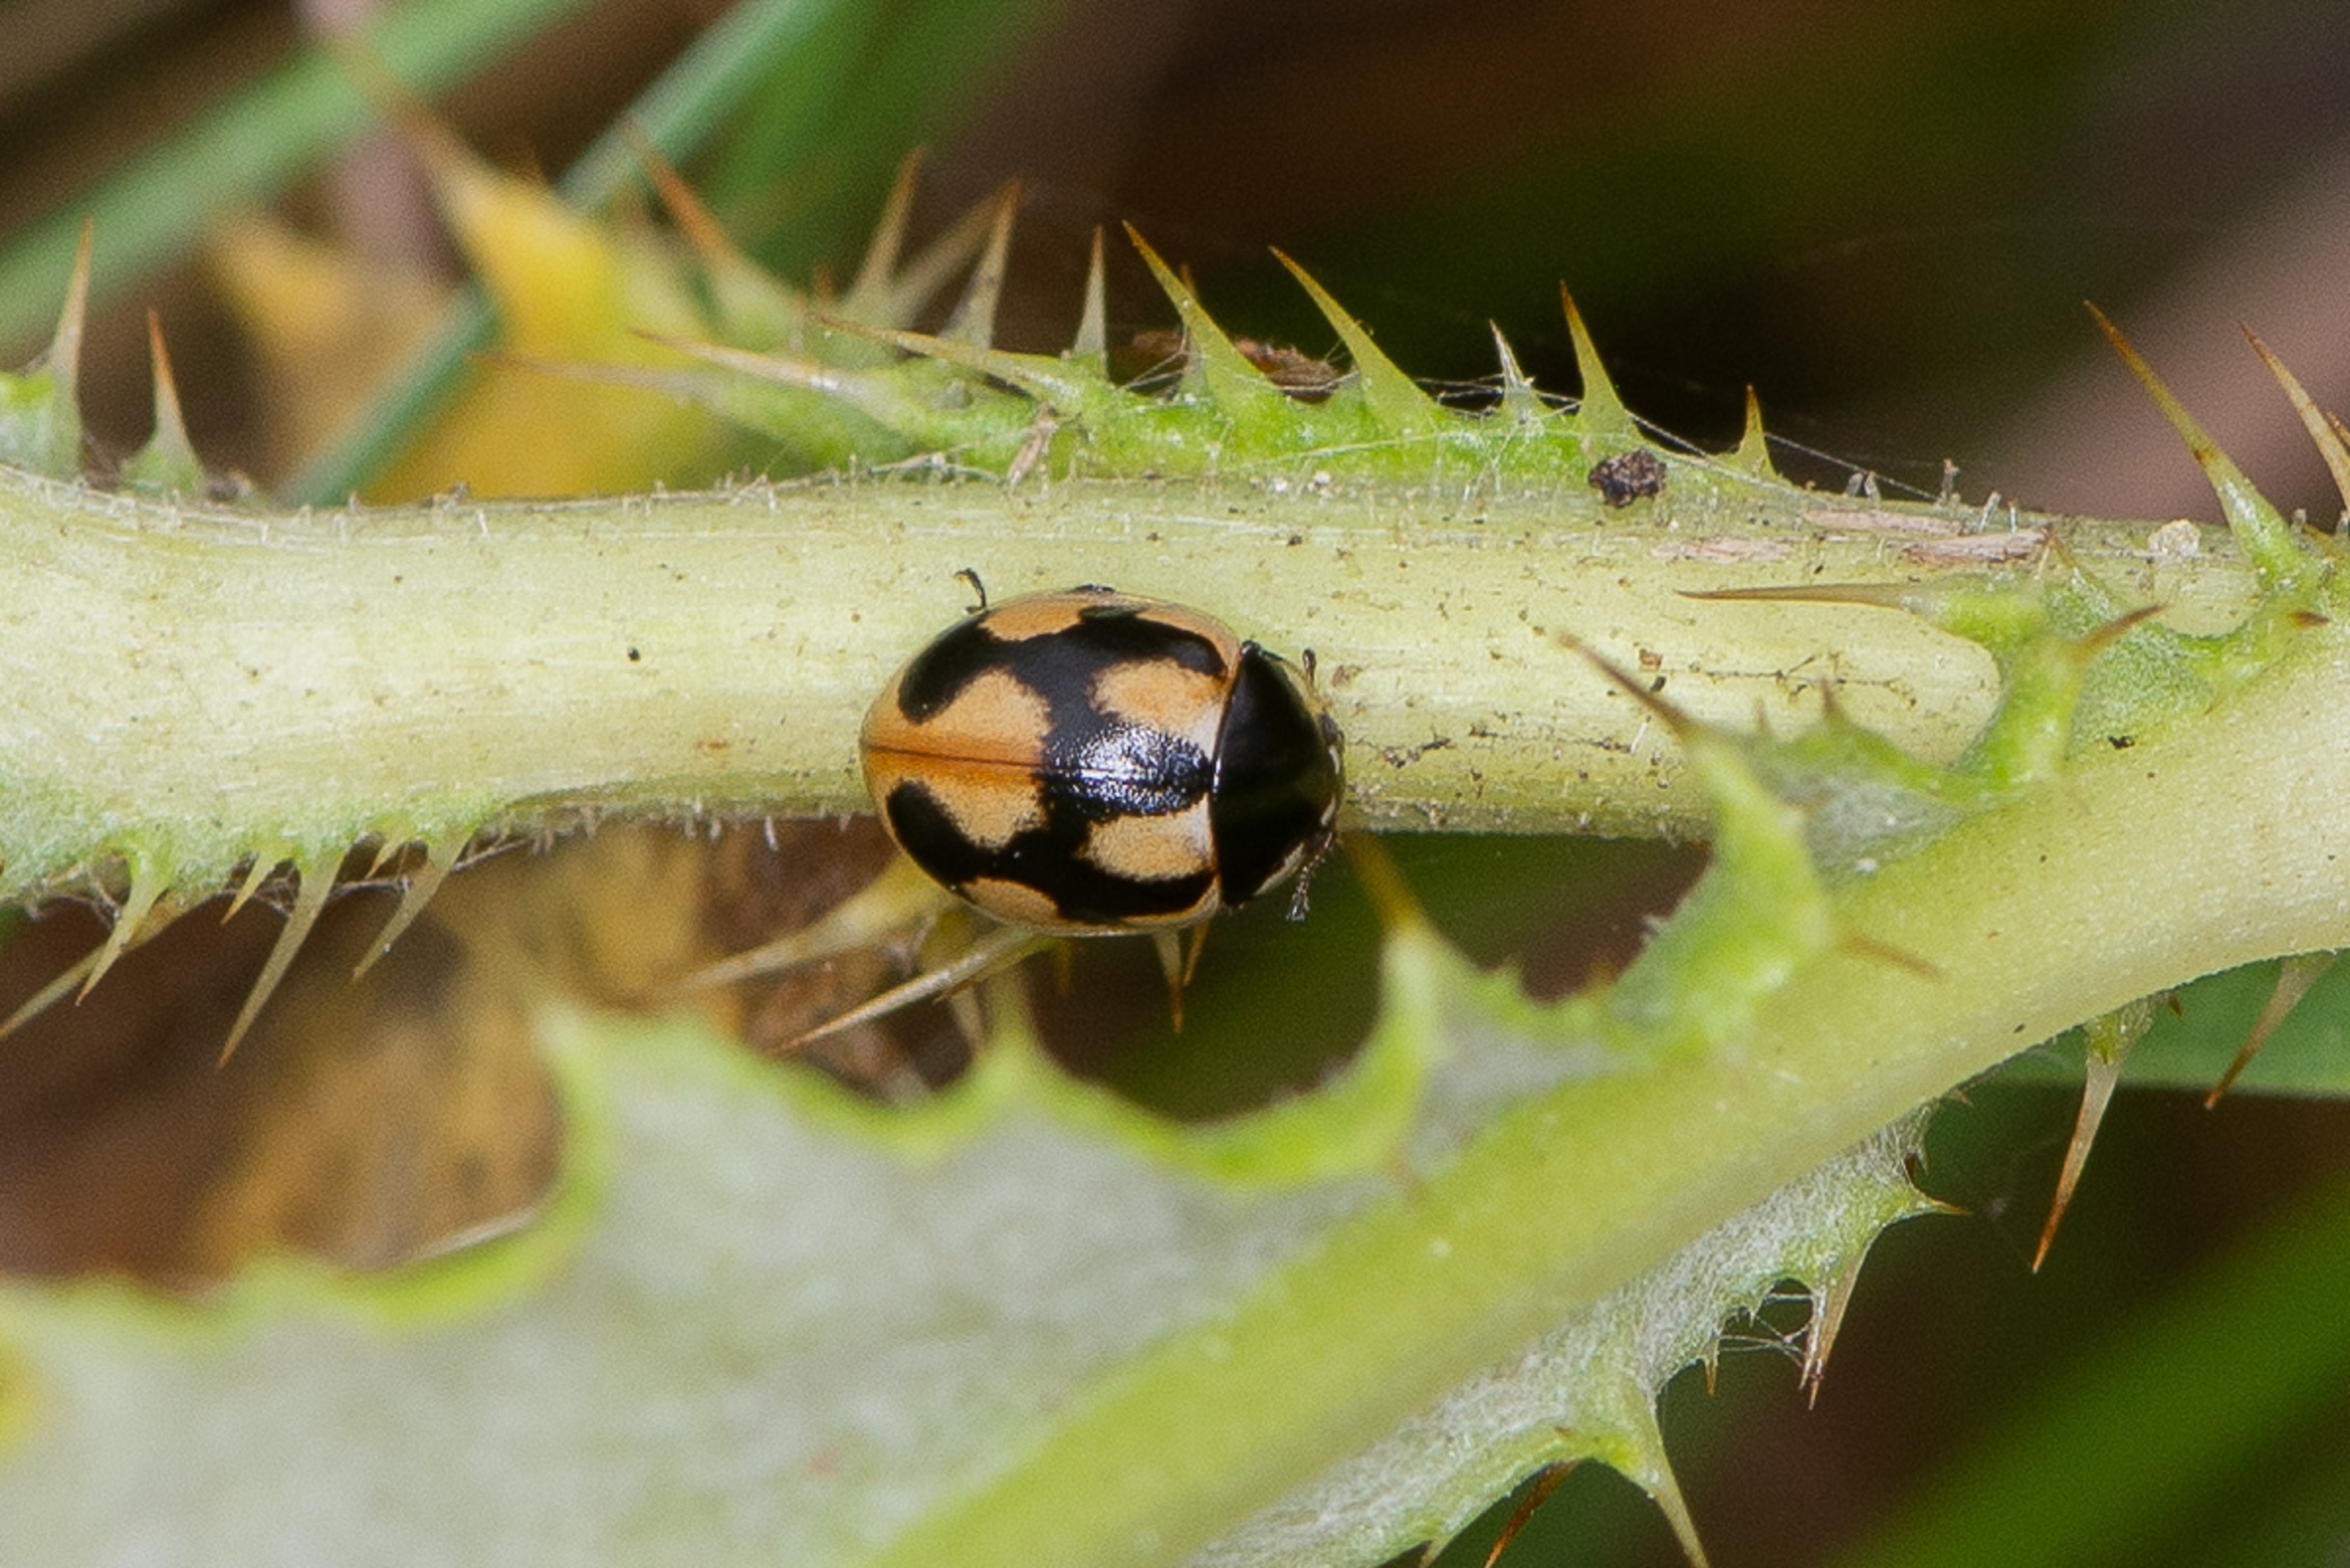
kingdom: Animalia
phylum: Arthropoda
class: Insecta
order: Coleoptera
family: Coccinellidae
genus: Coccinella
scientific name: Coccinella hieroglyphica
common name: Hieroglyf-mariehøne
